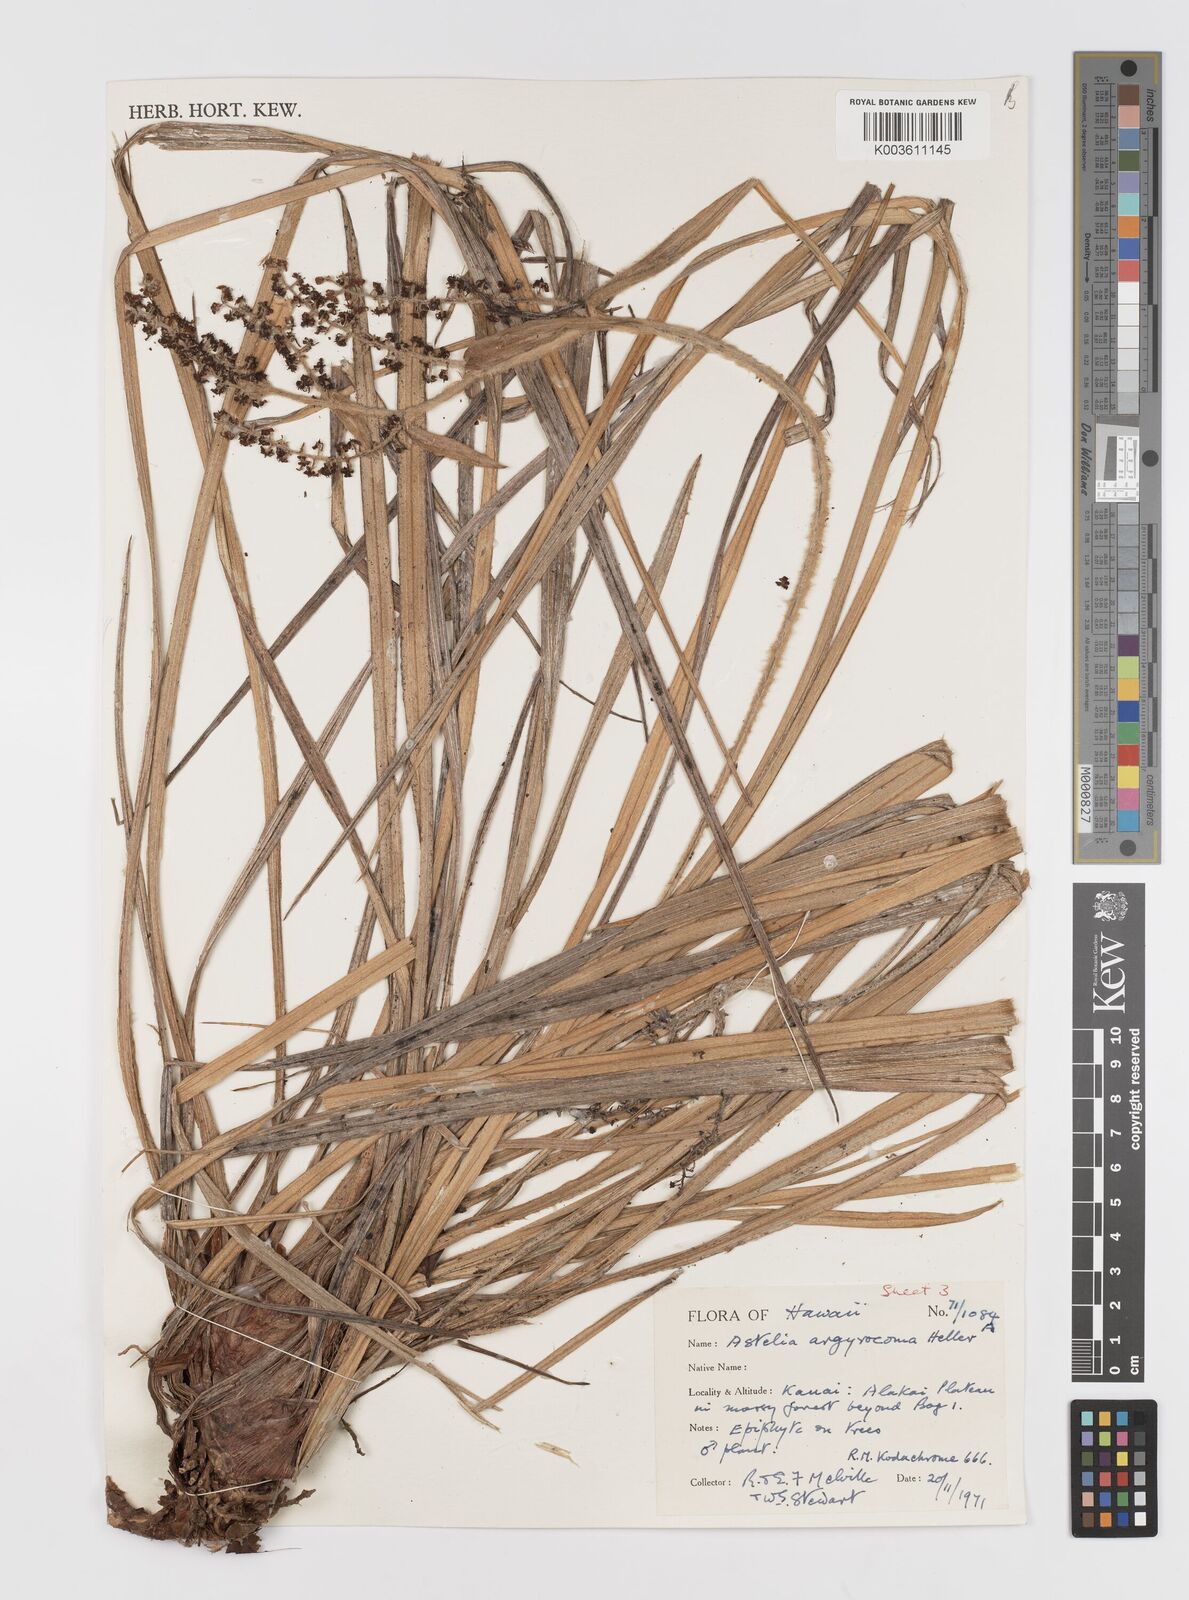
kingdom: Plantae
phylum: Tracheophyta
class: Liliopsida
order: Asparagales
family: Asteliaceae
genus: Astelia
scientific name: Astelia argyrocoma
